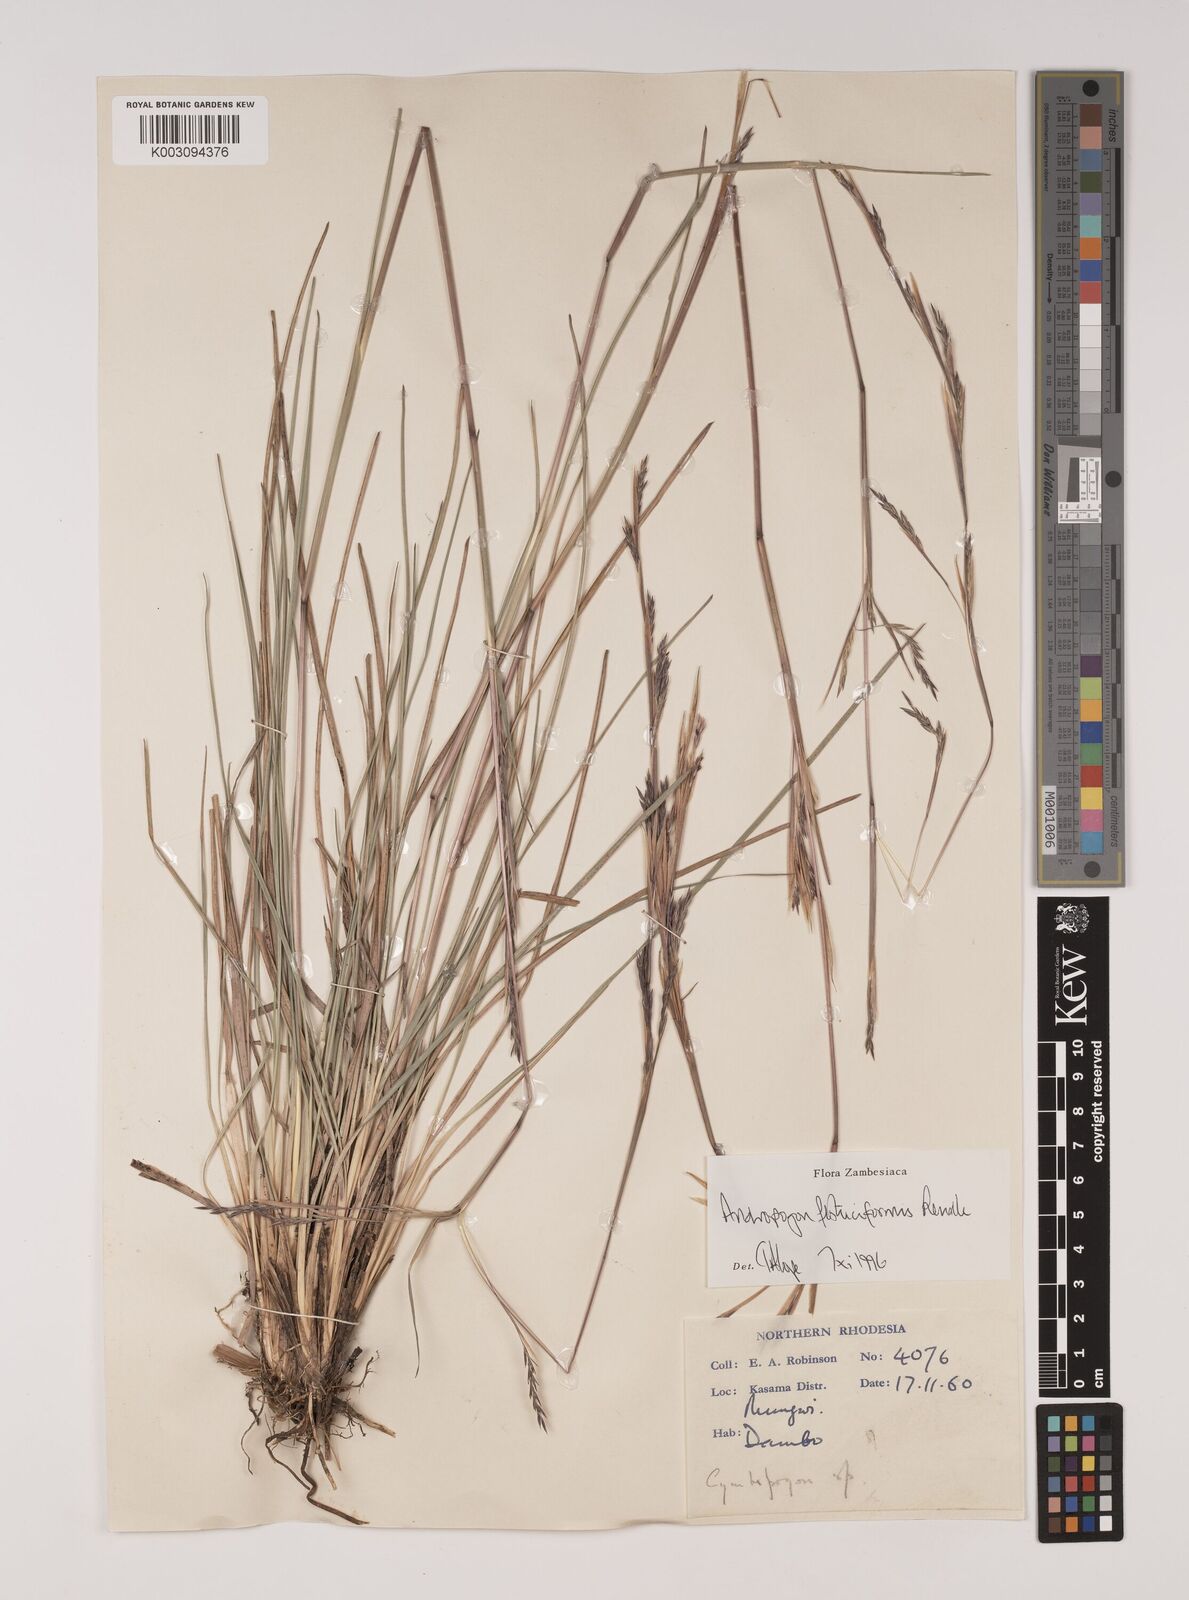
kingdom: Plantae
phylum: Tracheophyta
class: Liliopsida
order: Poales
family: Poaceae
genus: Andropogon
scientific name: Andropogon festuciformis
